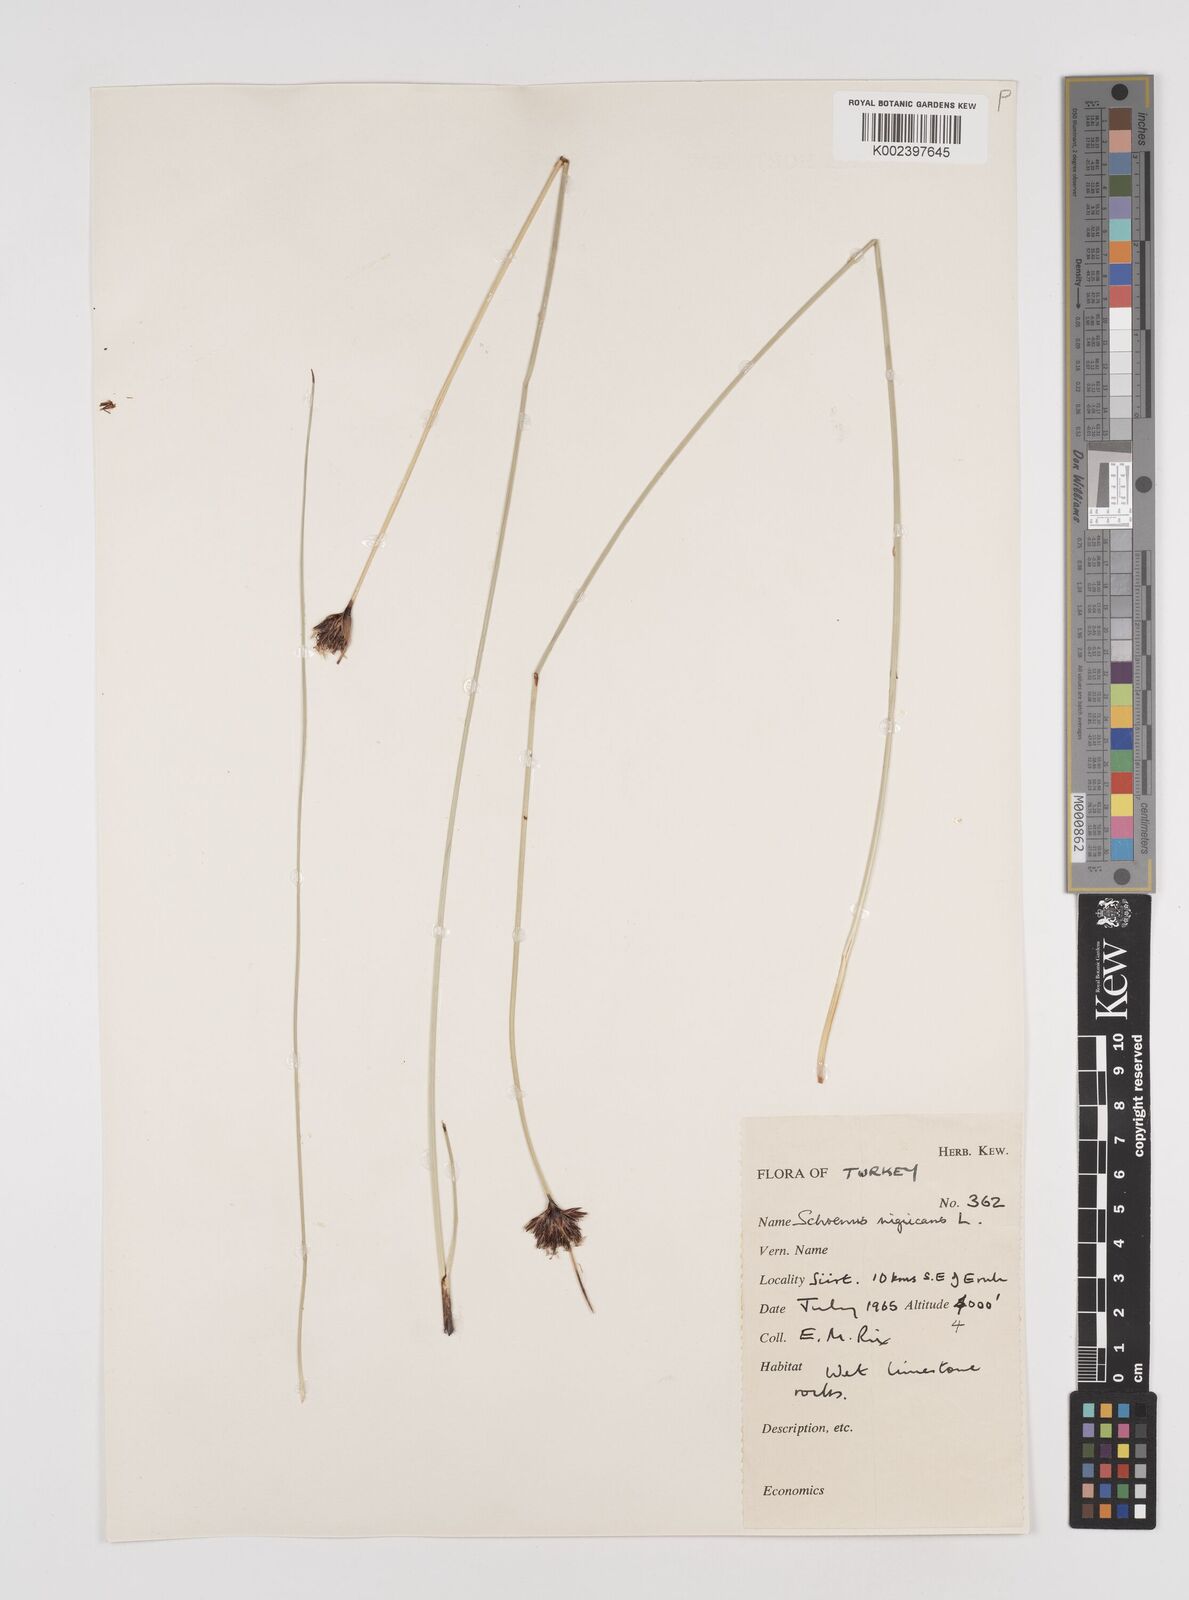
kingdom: Plantae
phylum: Tracheophyta
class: Liliopsida
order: Poales
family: Cyperaceae
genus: Schoenus
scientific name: Schoenus nigricans
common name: Black bog-rush
